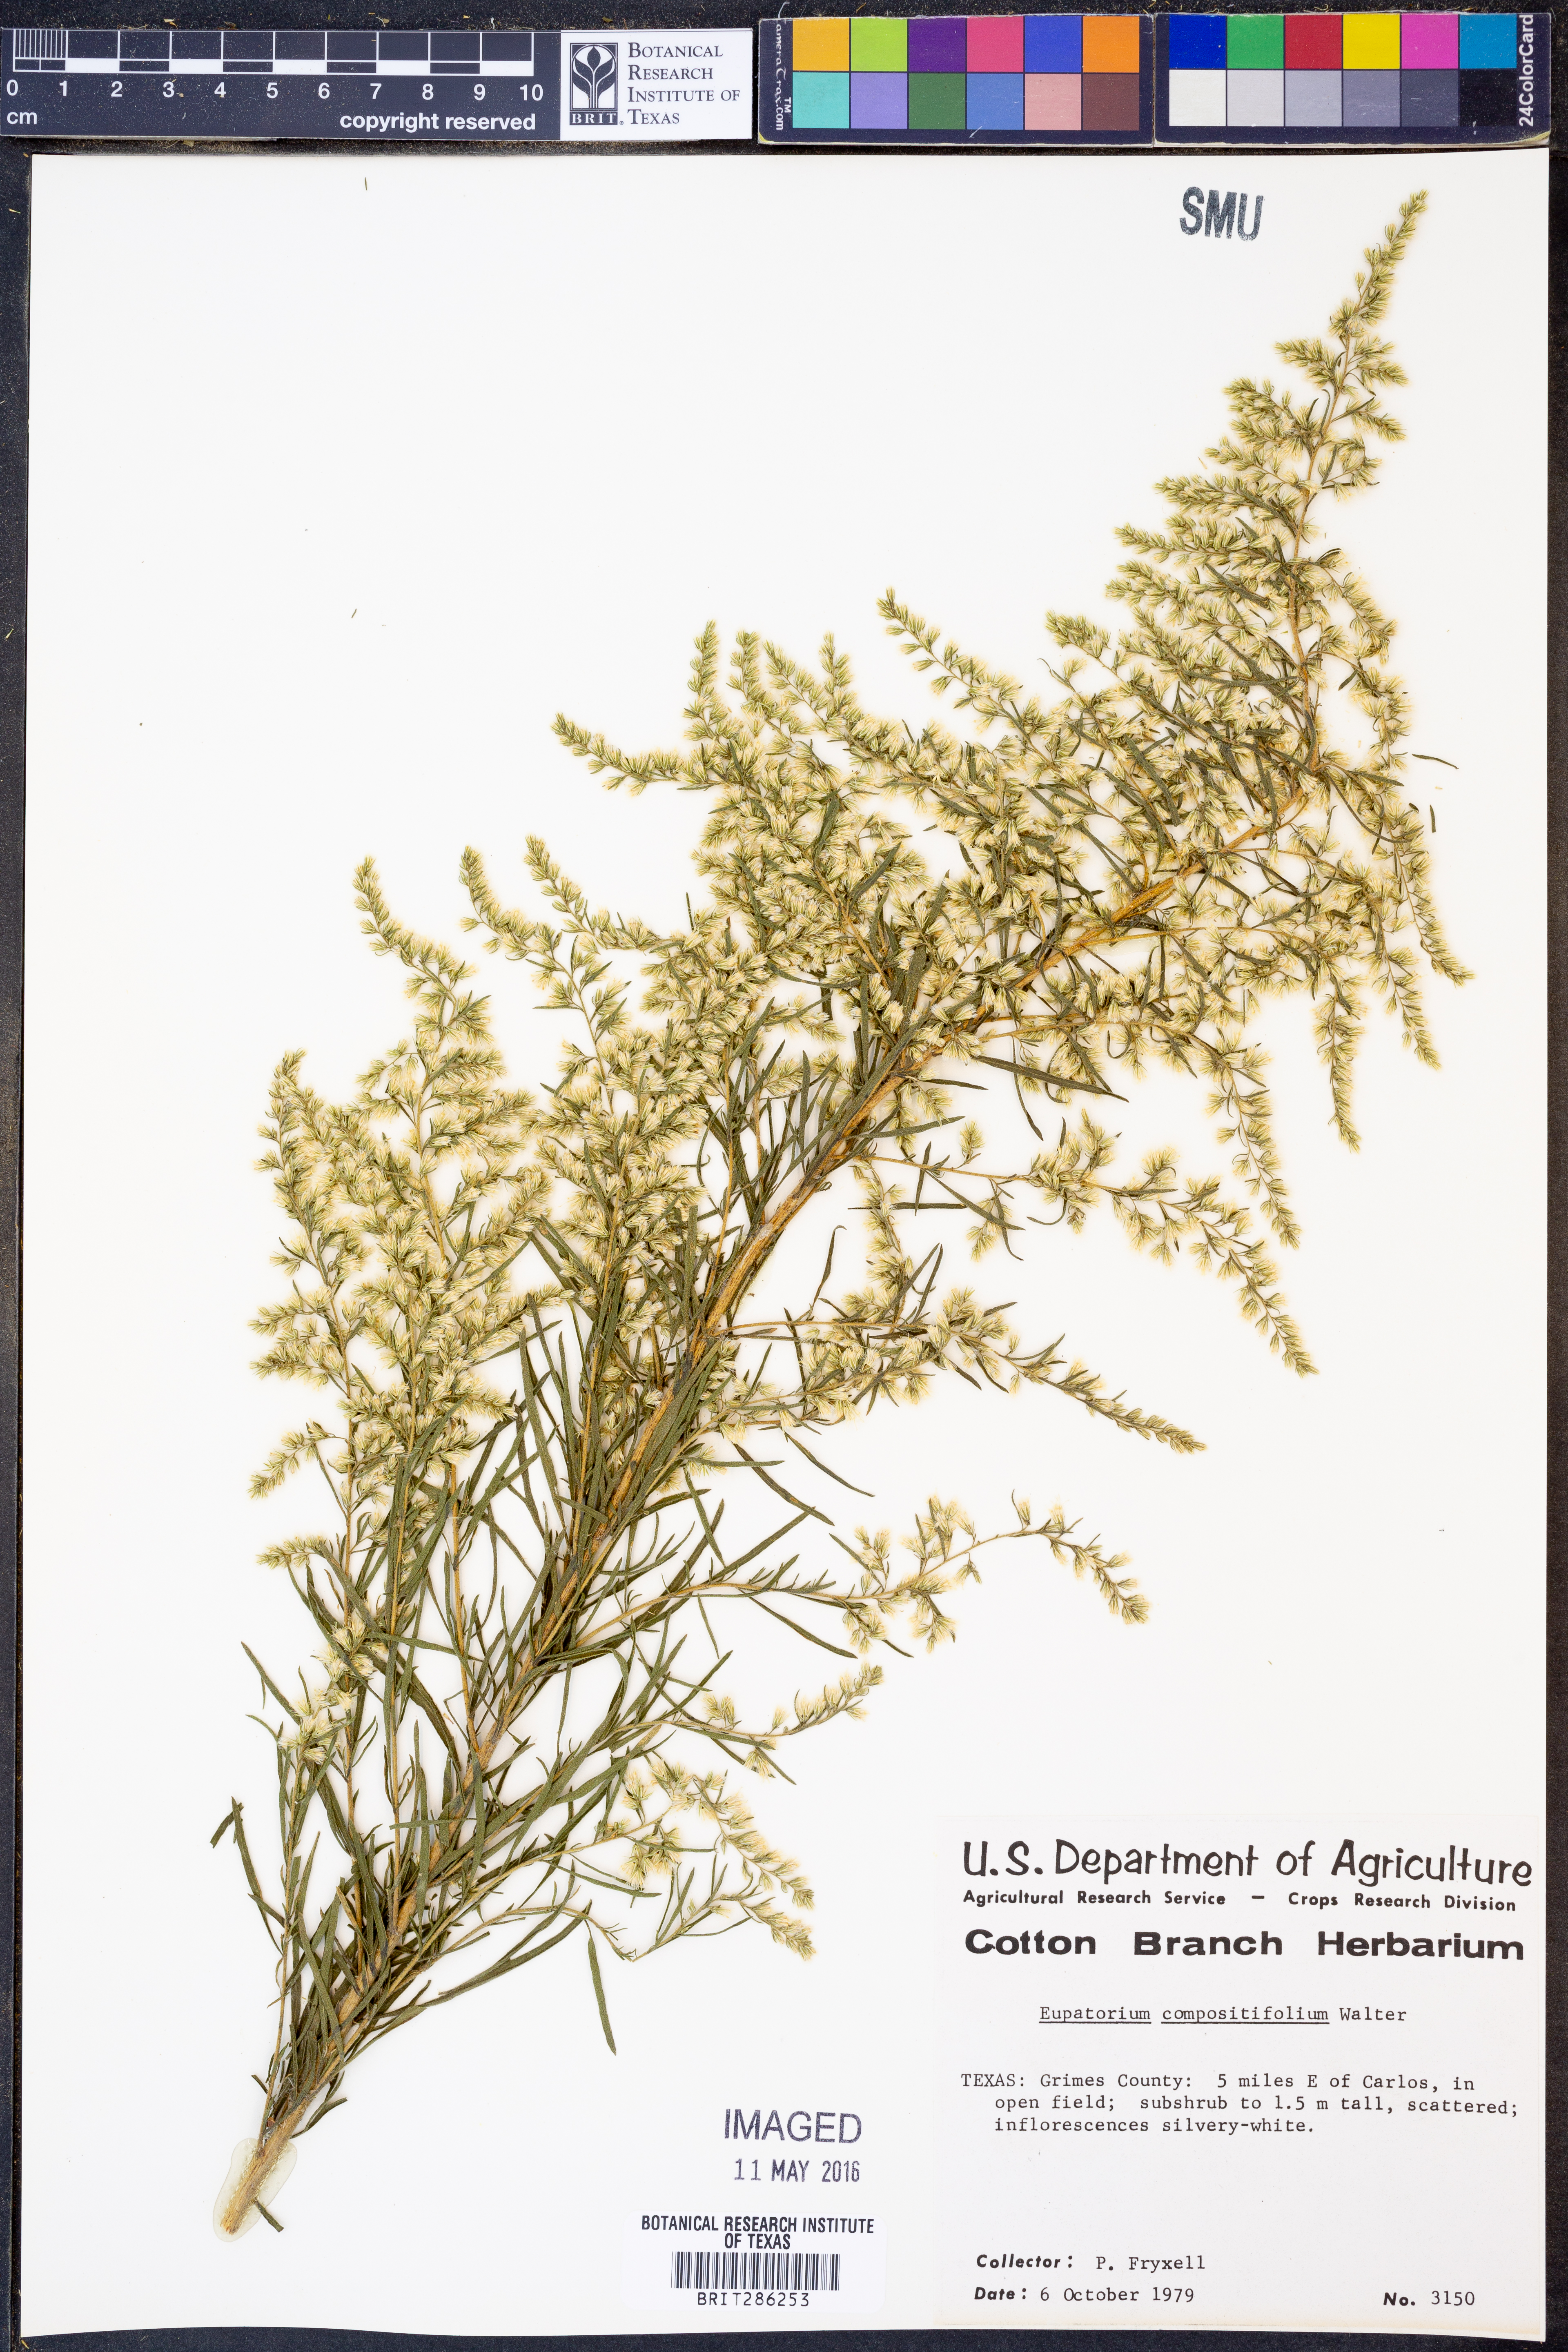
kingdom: Plantae
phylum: Tracheophyta
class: Magnoliopsida
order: Asterales
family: Asteraceae
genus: Eupatorium
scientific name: Eupatorium compositifolium
